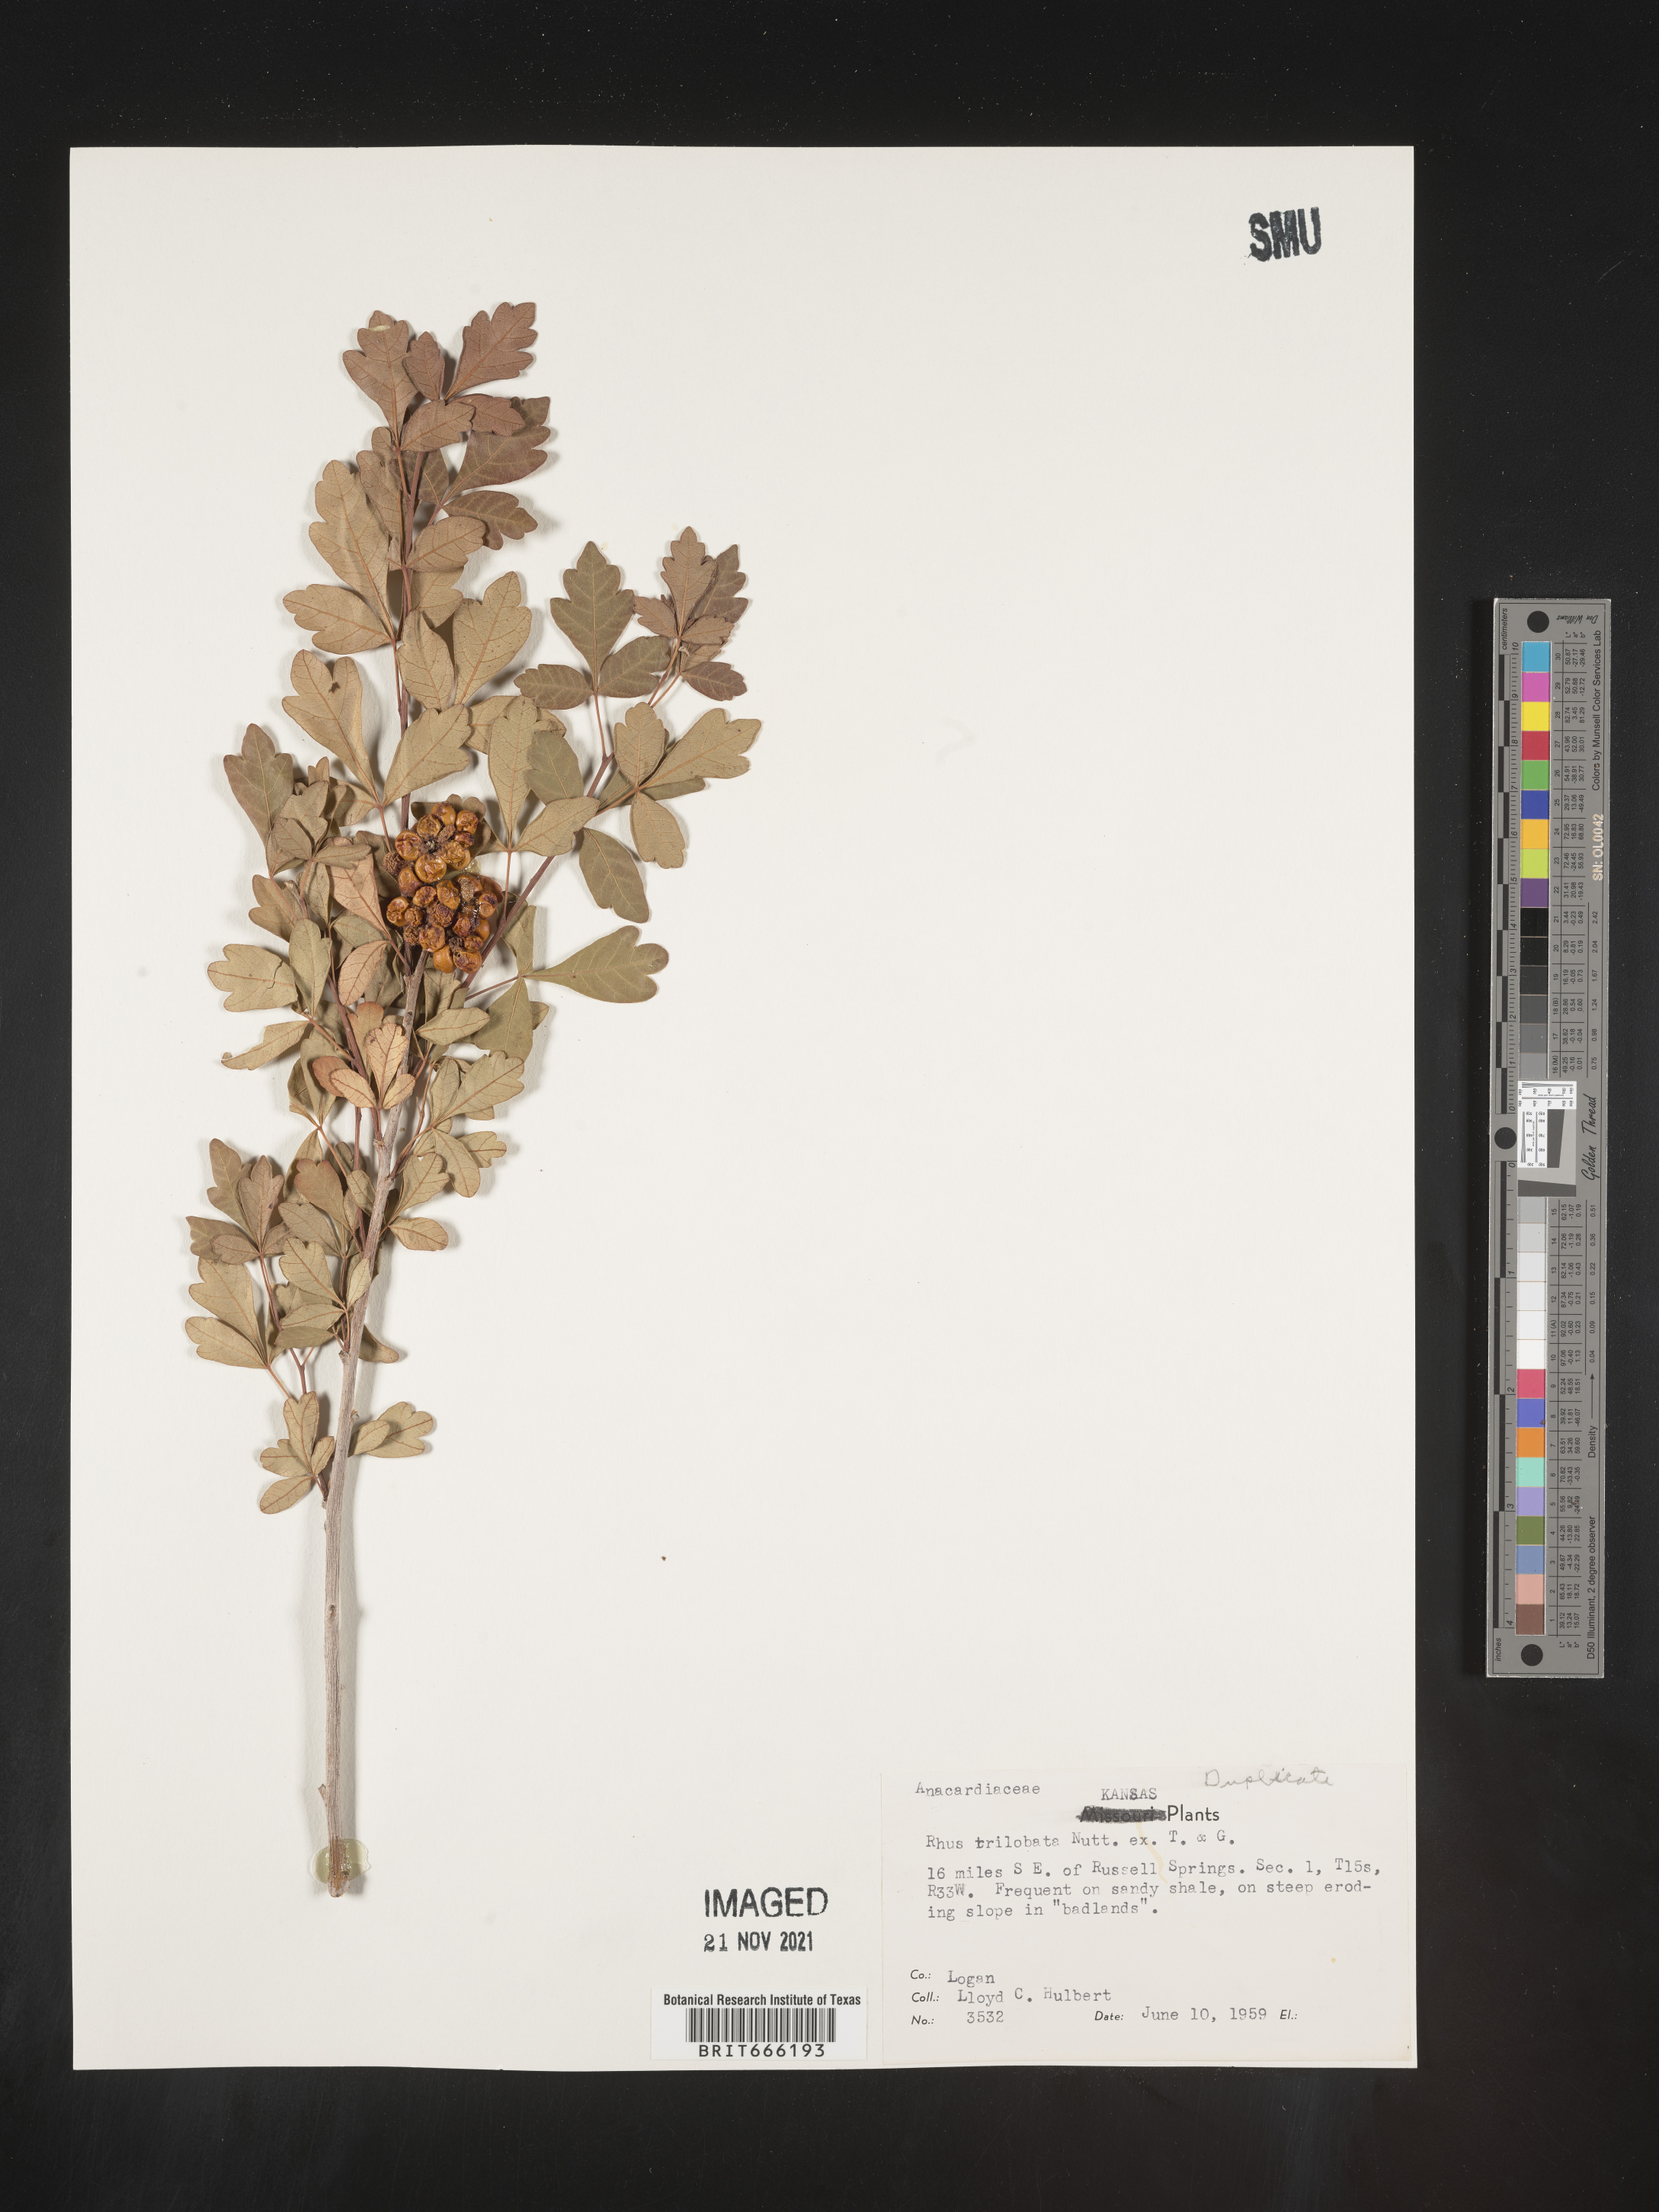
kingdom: Plantae
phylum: Tracheophyta
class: Magnoliopsida
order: Sapindales
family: Anacardiaceae
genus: Rhus
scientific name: Rhus trilobata
